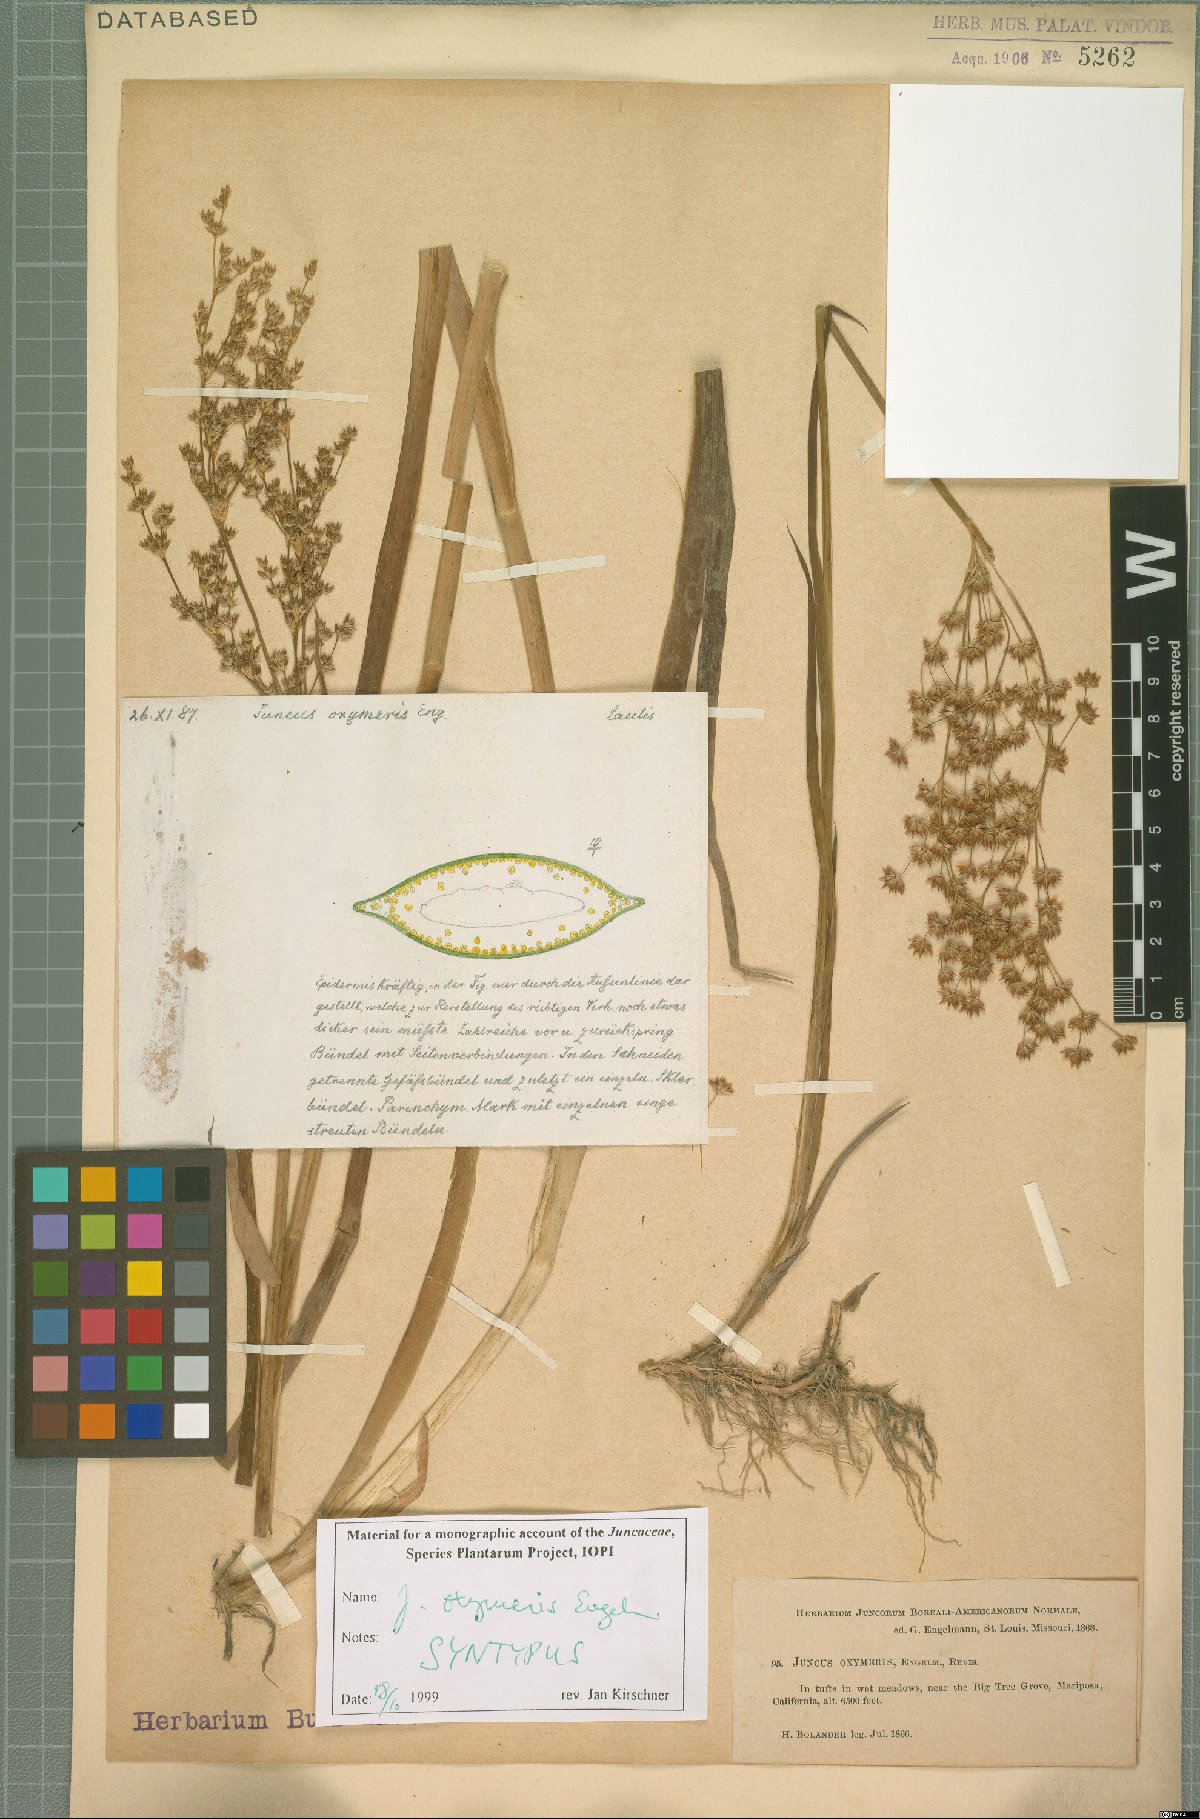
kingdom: Plantae
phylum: Tracheophyta
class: Liliopsida
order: Poales
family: Juncaceae
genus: Juncus
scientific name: Juncus oxymeris
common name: Pointed rush
